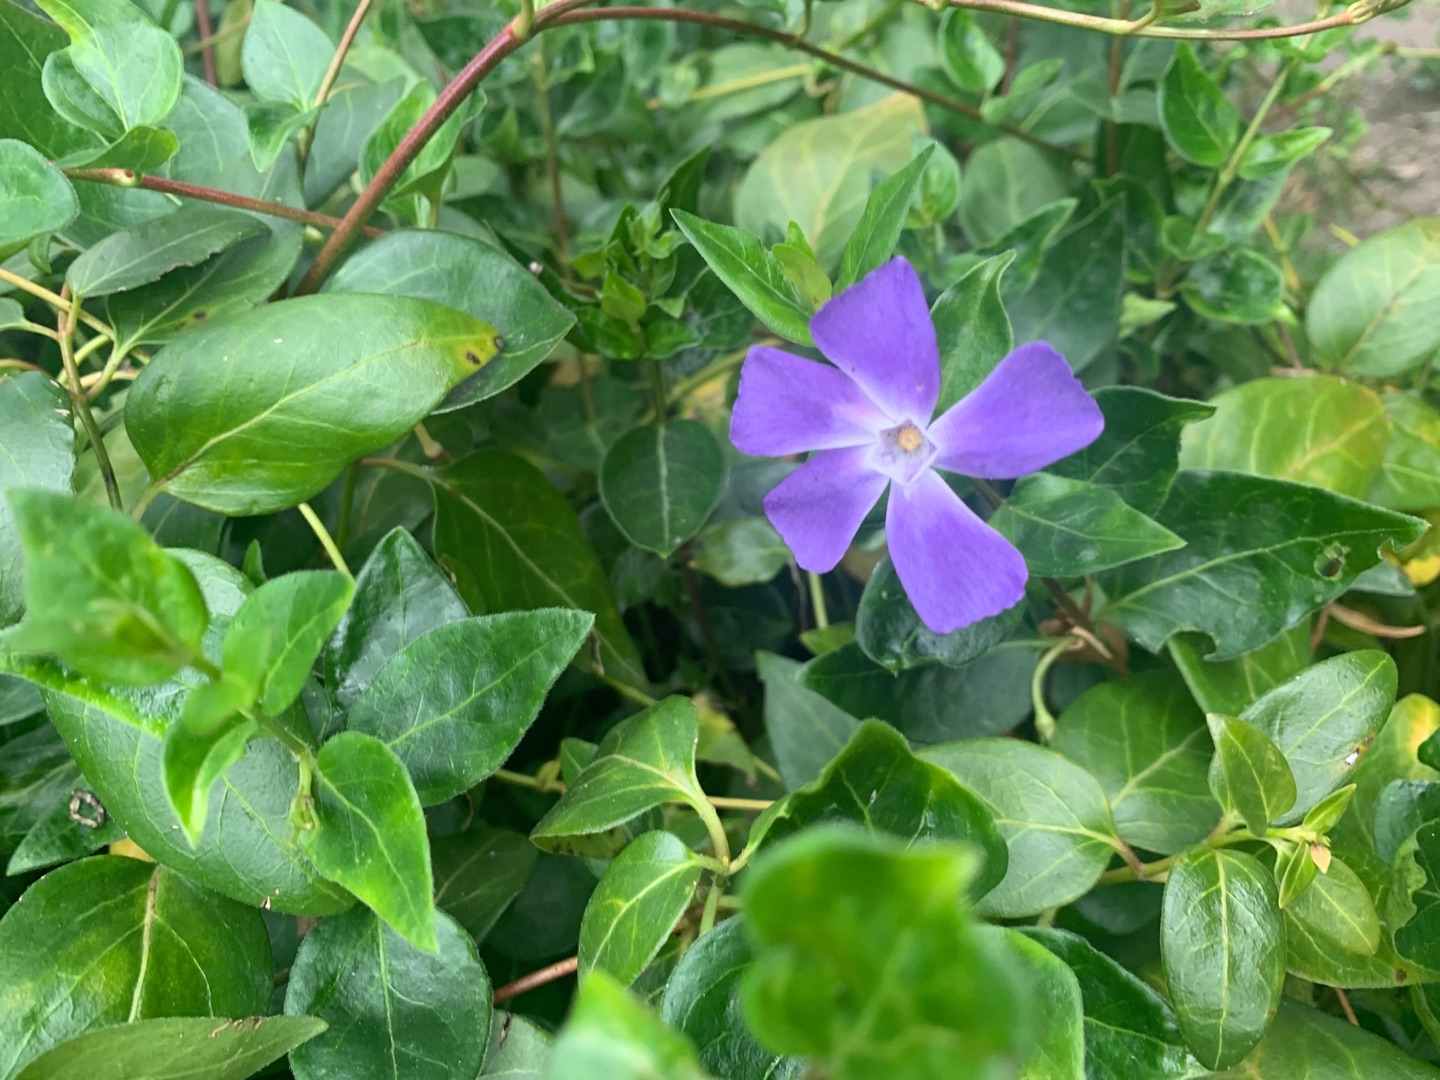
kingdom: Plantae
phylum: Tracheophyta
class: Magnoliopsida
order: Gentianales
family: Apocynaceae
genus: Vinca
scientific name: Vinca minor
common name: Liden singrøn
